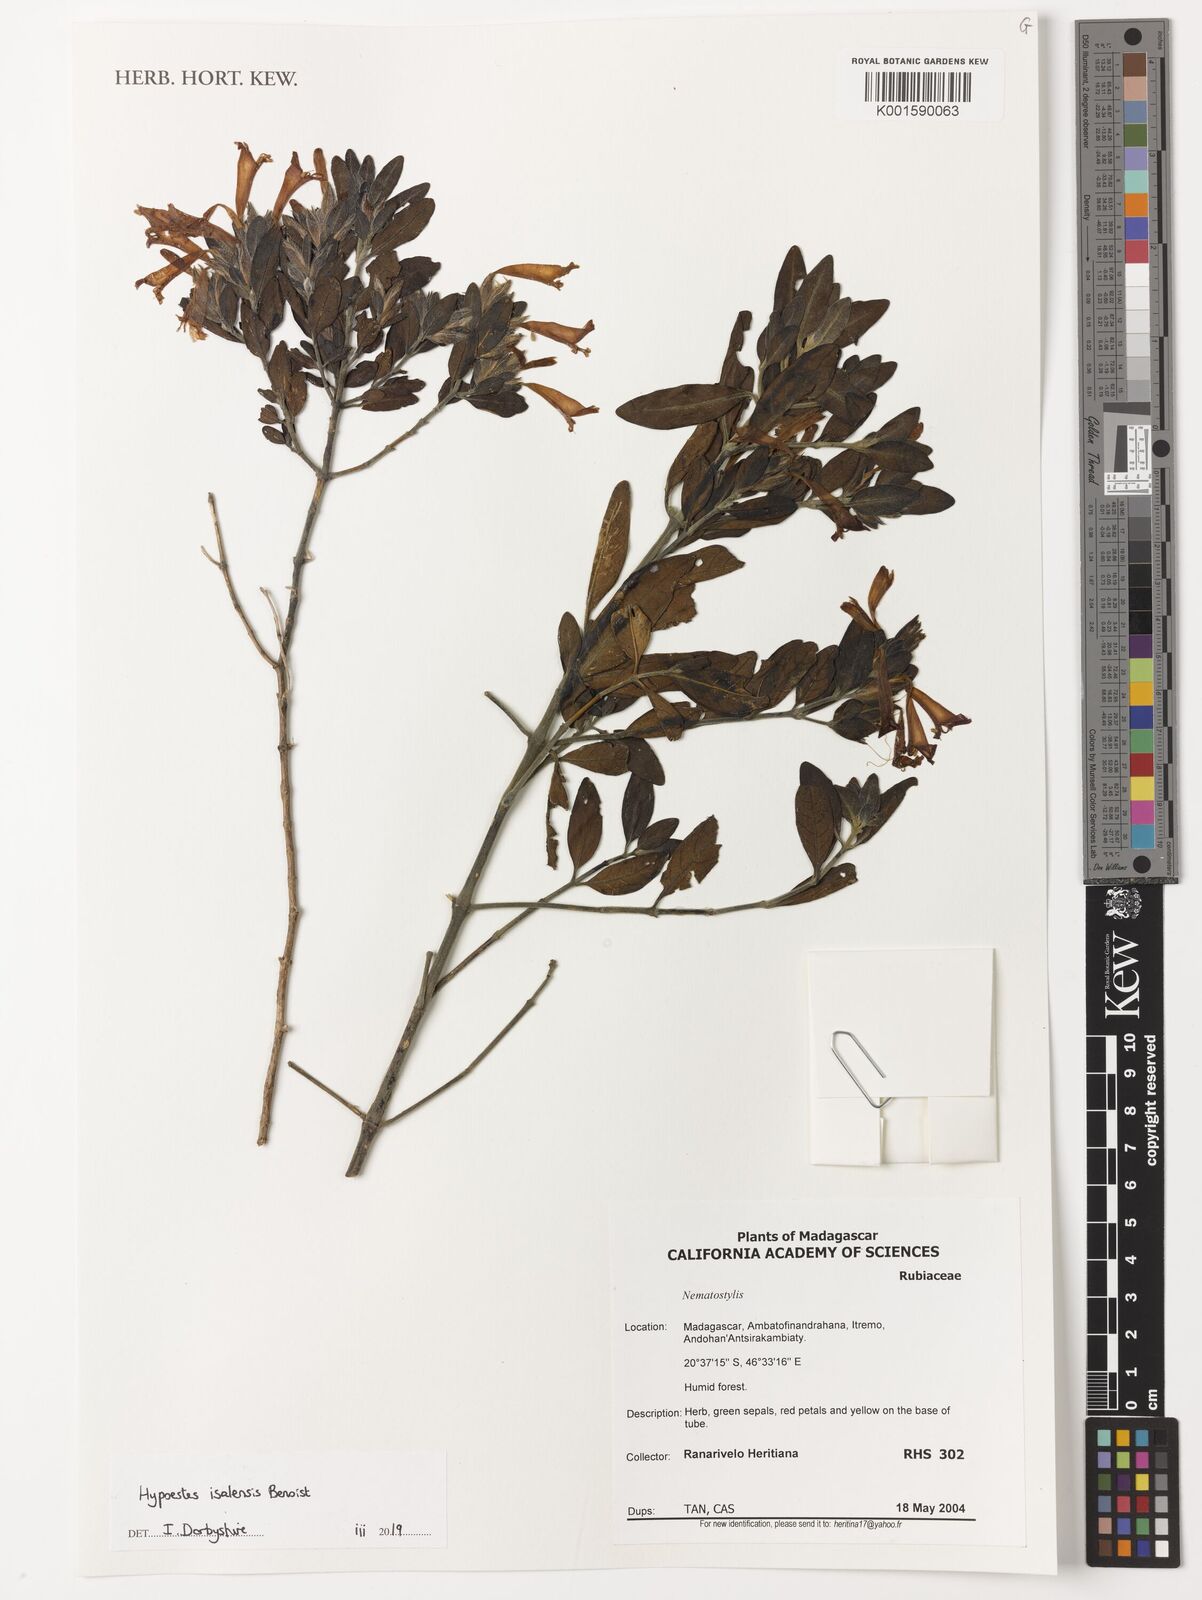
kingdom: Plantae
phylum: Tracheophyta
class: Magnoliopsida
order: Lamiales
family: Acanthaceae
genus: Hypoestes
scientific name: Hypoestes isalensis
